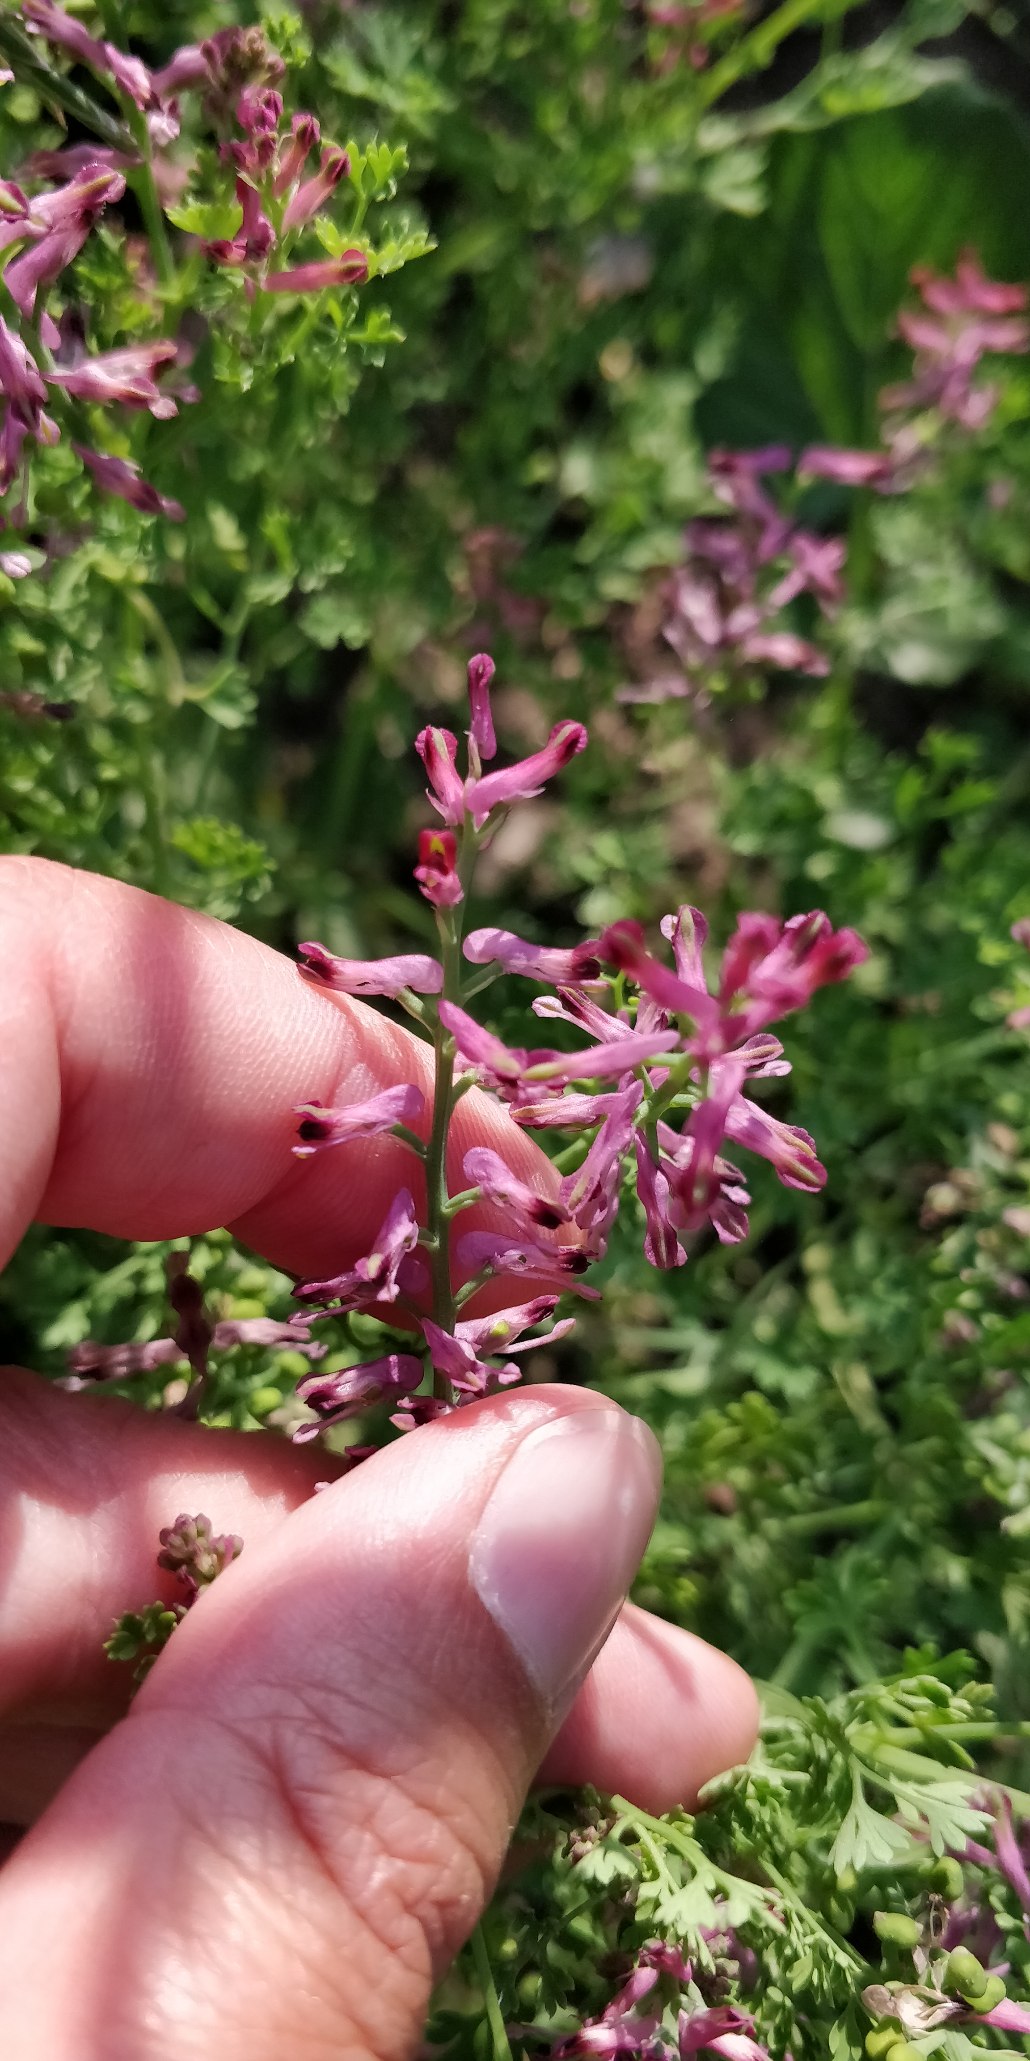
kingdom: Plantae
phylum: Tracheophyta
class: Magnoliopsida
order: Ranunculales
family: Papaveraceae
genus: Fumaria
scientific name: Fumaria officinalis
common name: Læge-jordrøg
